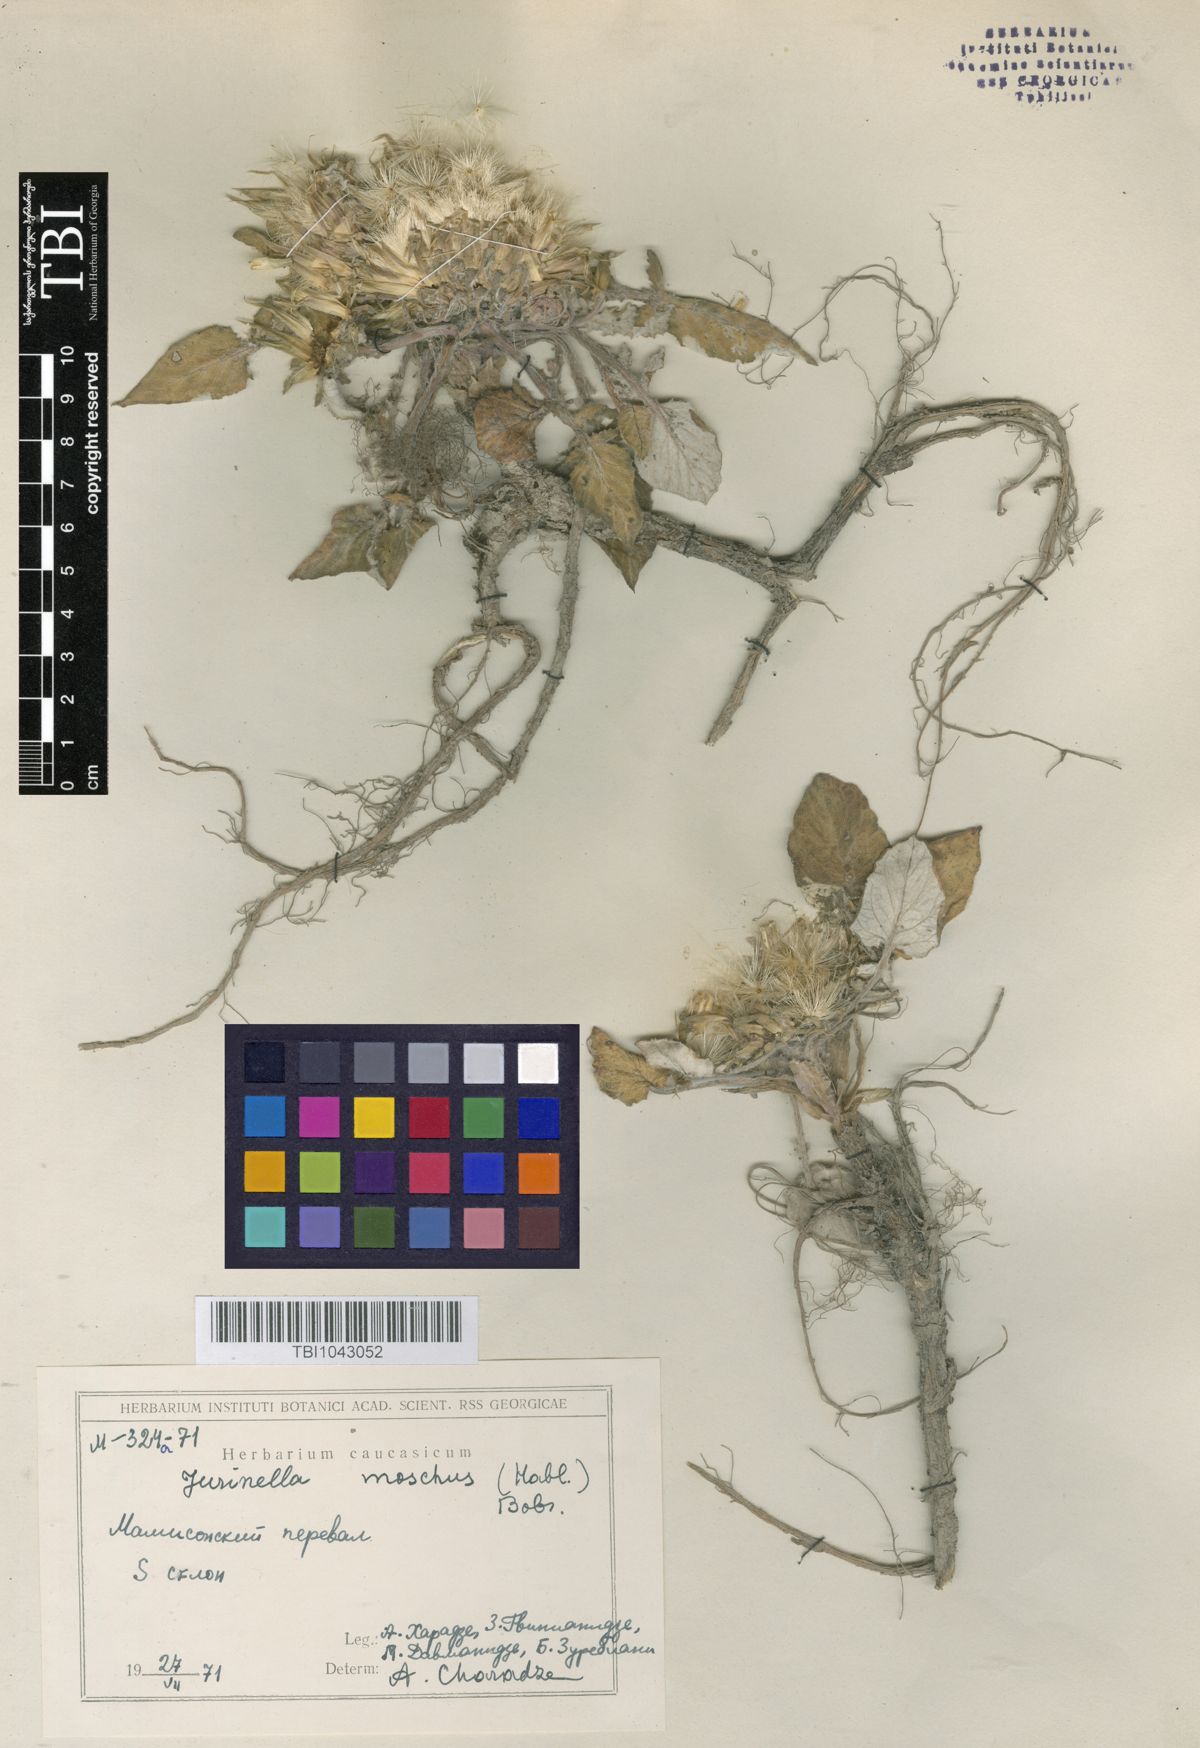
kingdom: Plantae
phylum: Tracheophyta
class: Magnoliopsida
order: Asterales
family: Asteraceae
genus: Jurinea
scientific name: Jurinea moschus
